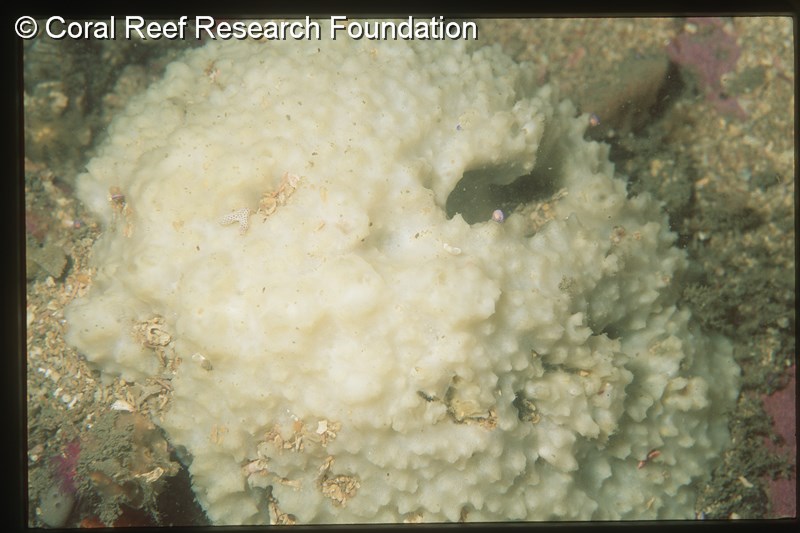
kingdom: Animalia
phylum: Porifera
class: Demospongiae
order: Axinellida
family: Raspailiidae
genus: Aulospongus
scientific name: Aulospongus monticularis
